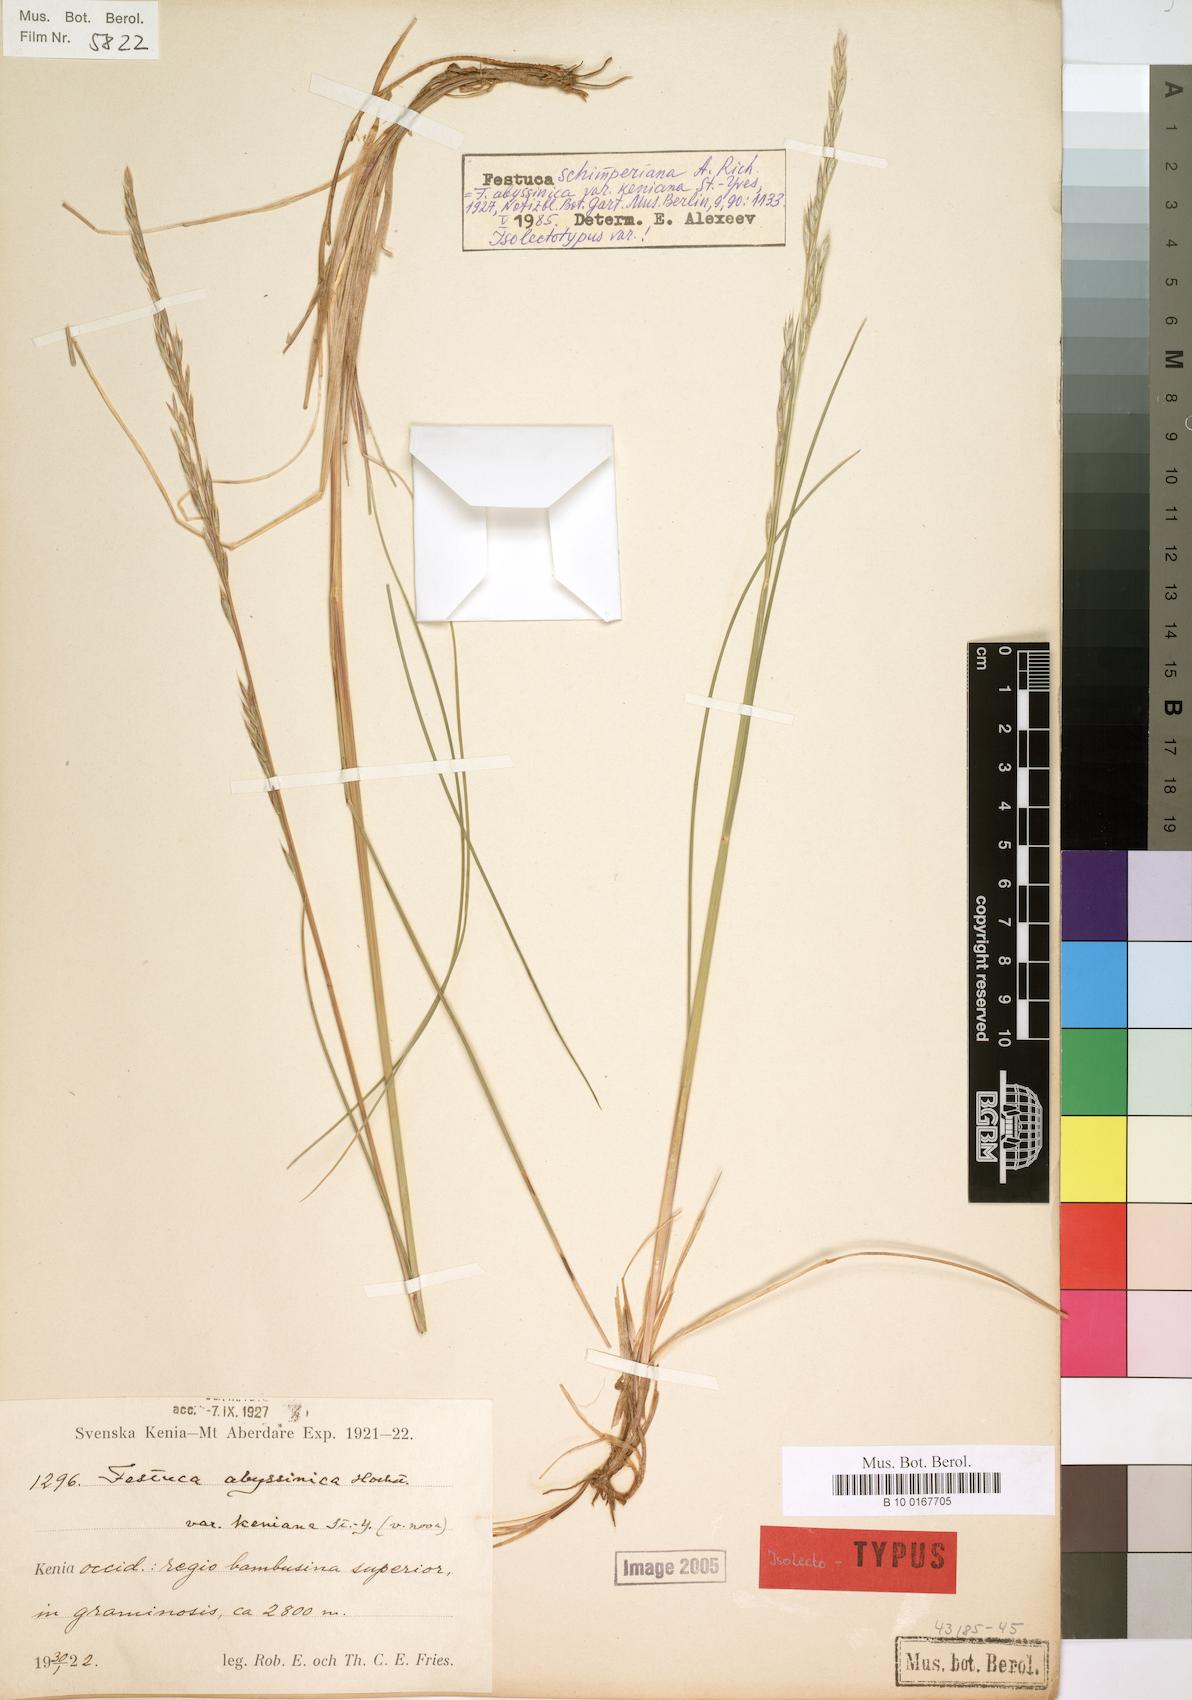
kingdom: Plantae
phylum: Tracheophyta
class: Liliopsida
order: Poales
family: Poaceae
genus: Festuca
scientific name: Festuca abyssinica
